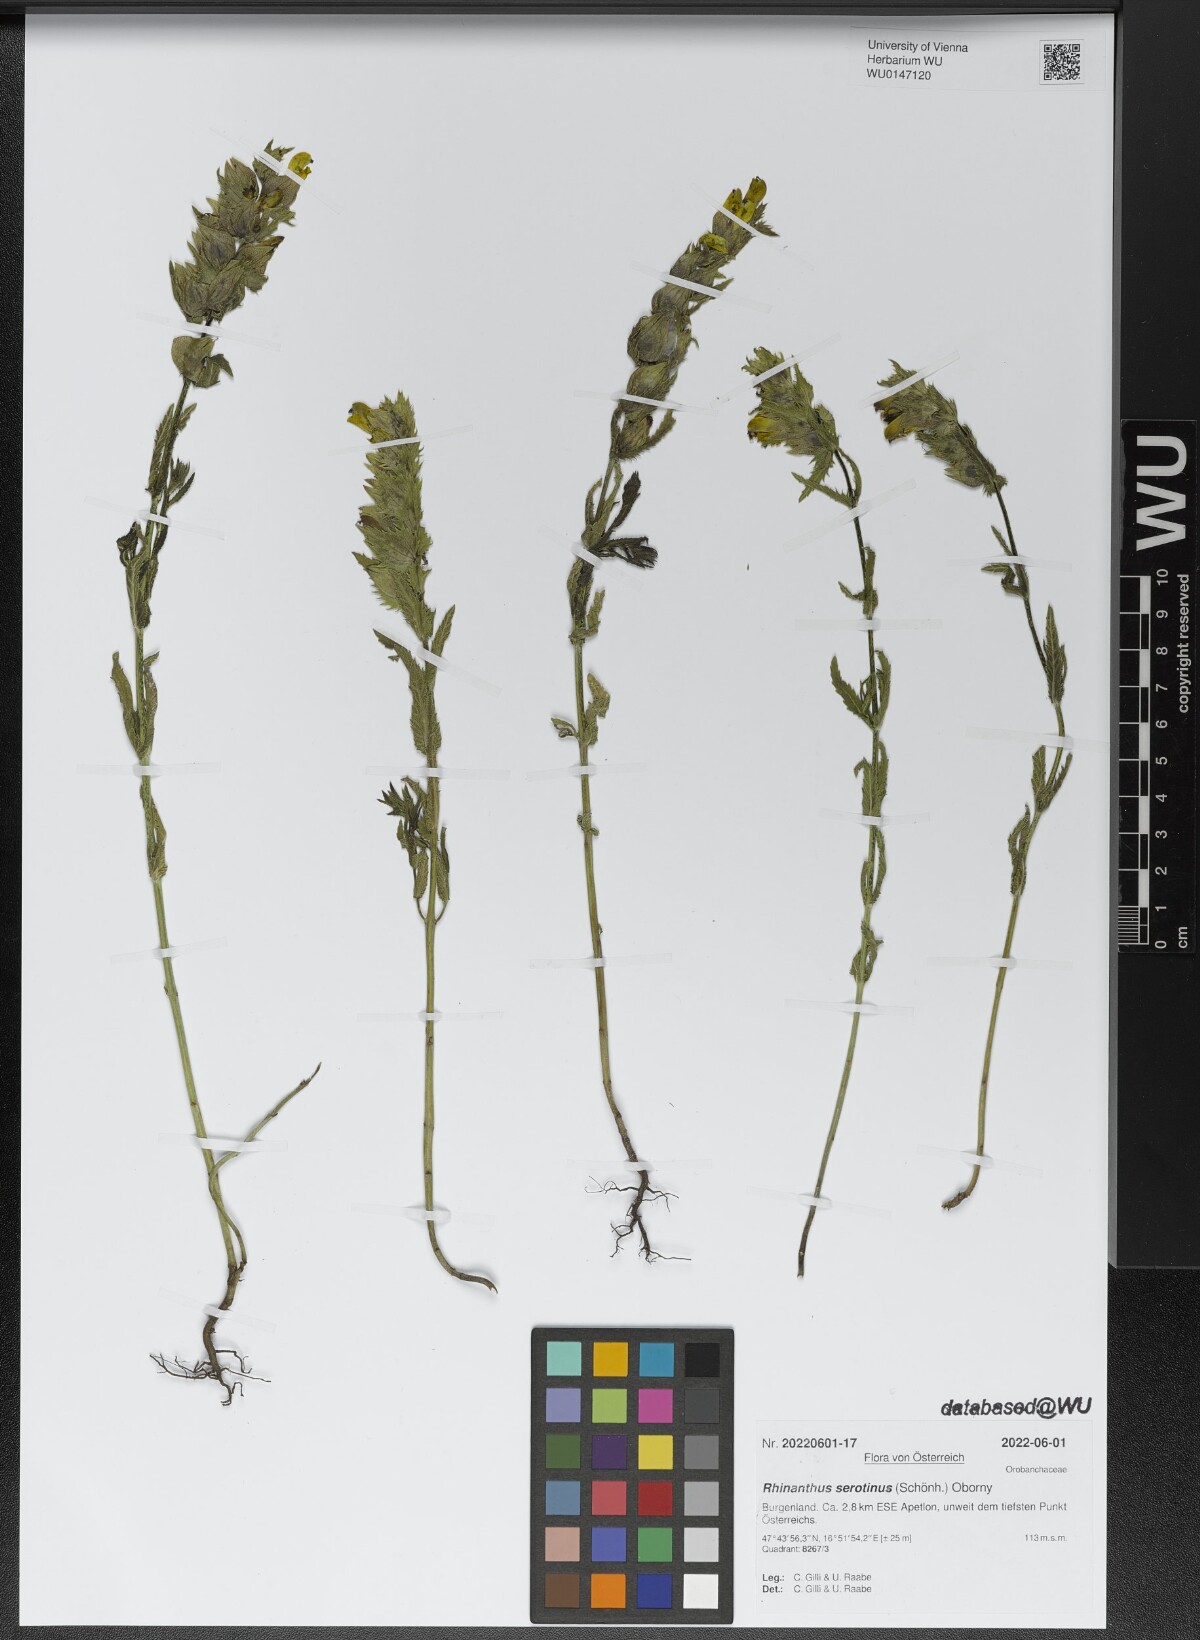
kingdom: Plantae
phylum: Tracheophyta
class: Magnoliopsida
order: Lamiales
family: Orobanchaceae
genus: Rhinanthus
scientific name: Rhinanthus serotinus
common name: Late-flowering yellow rattle
